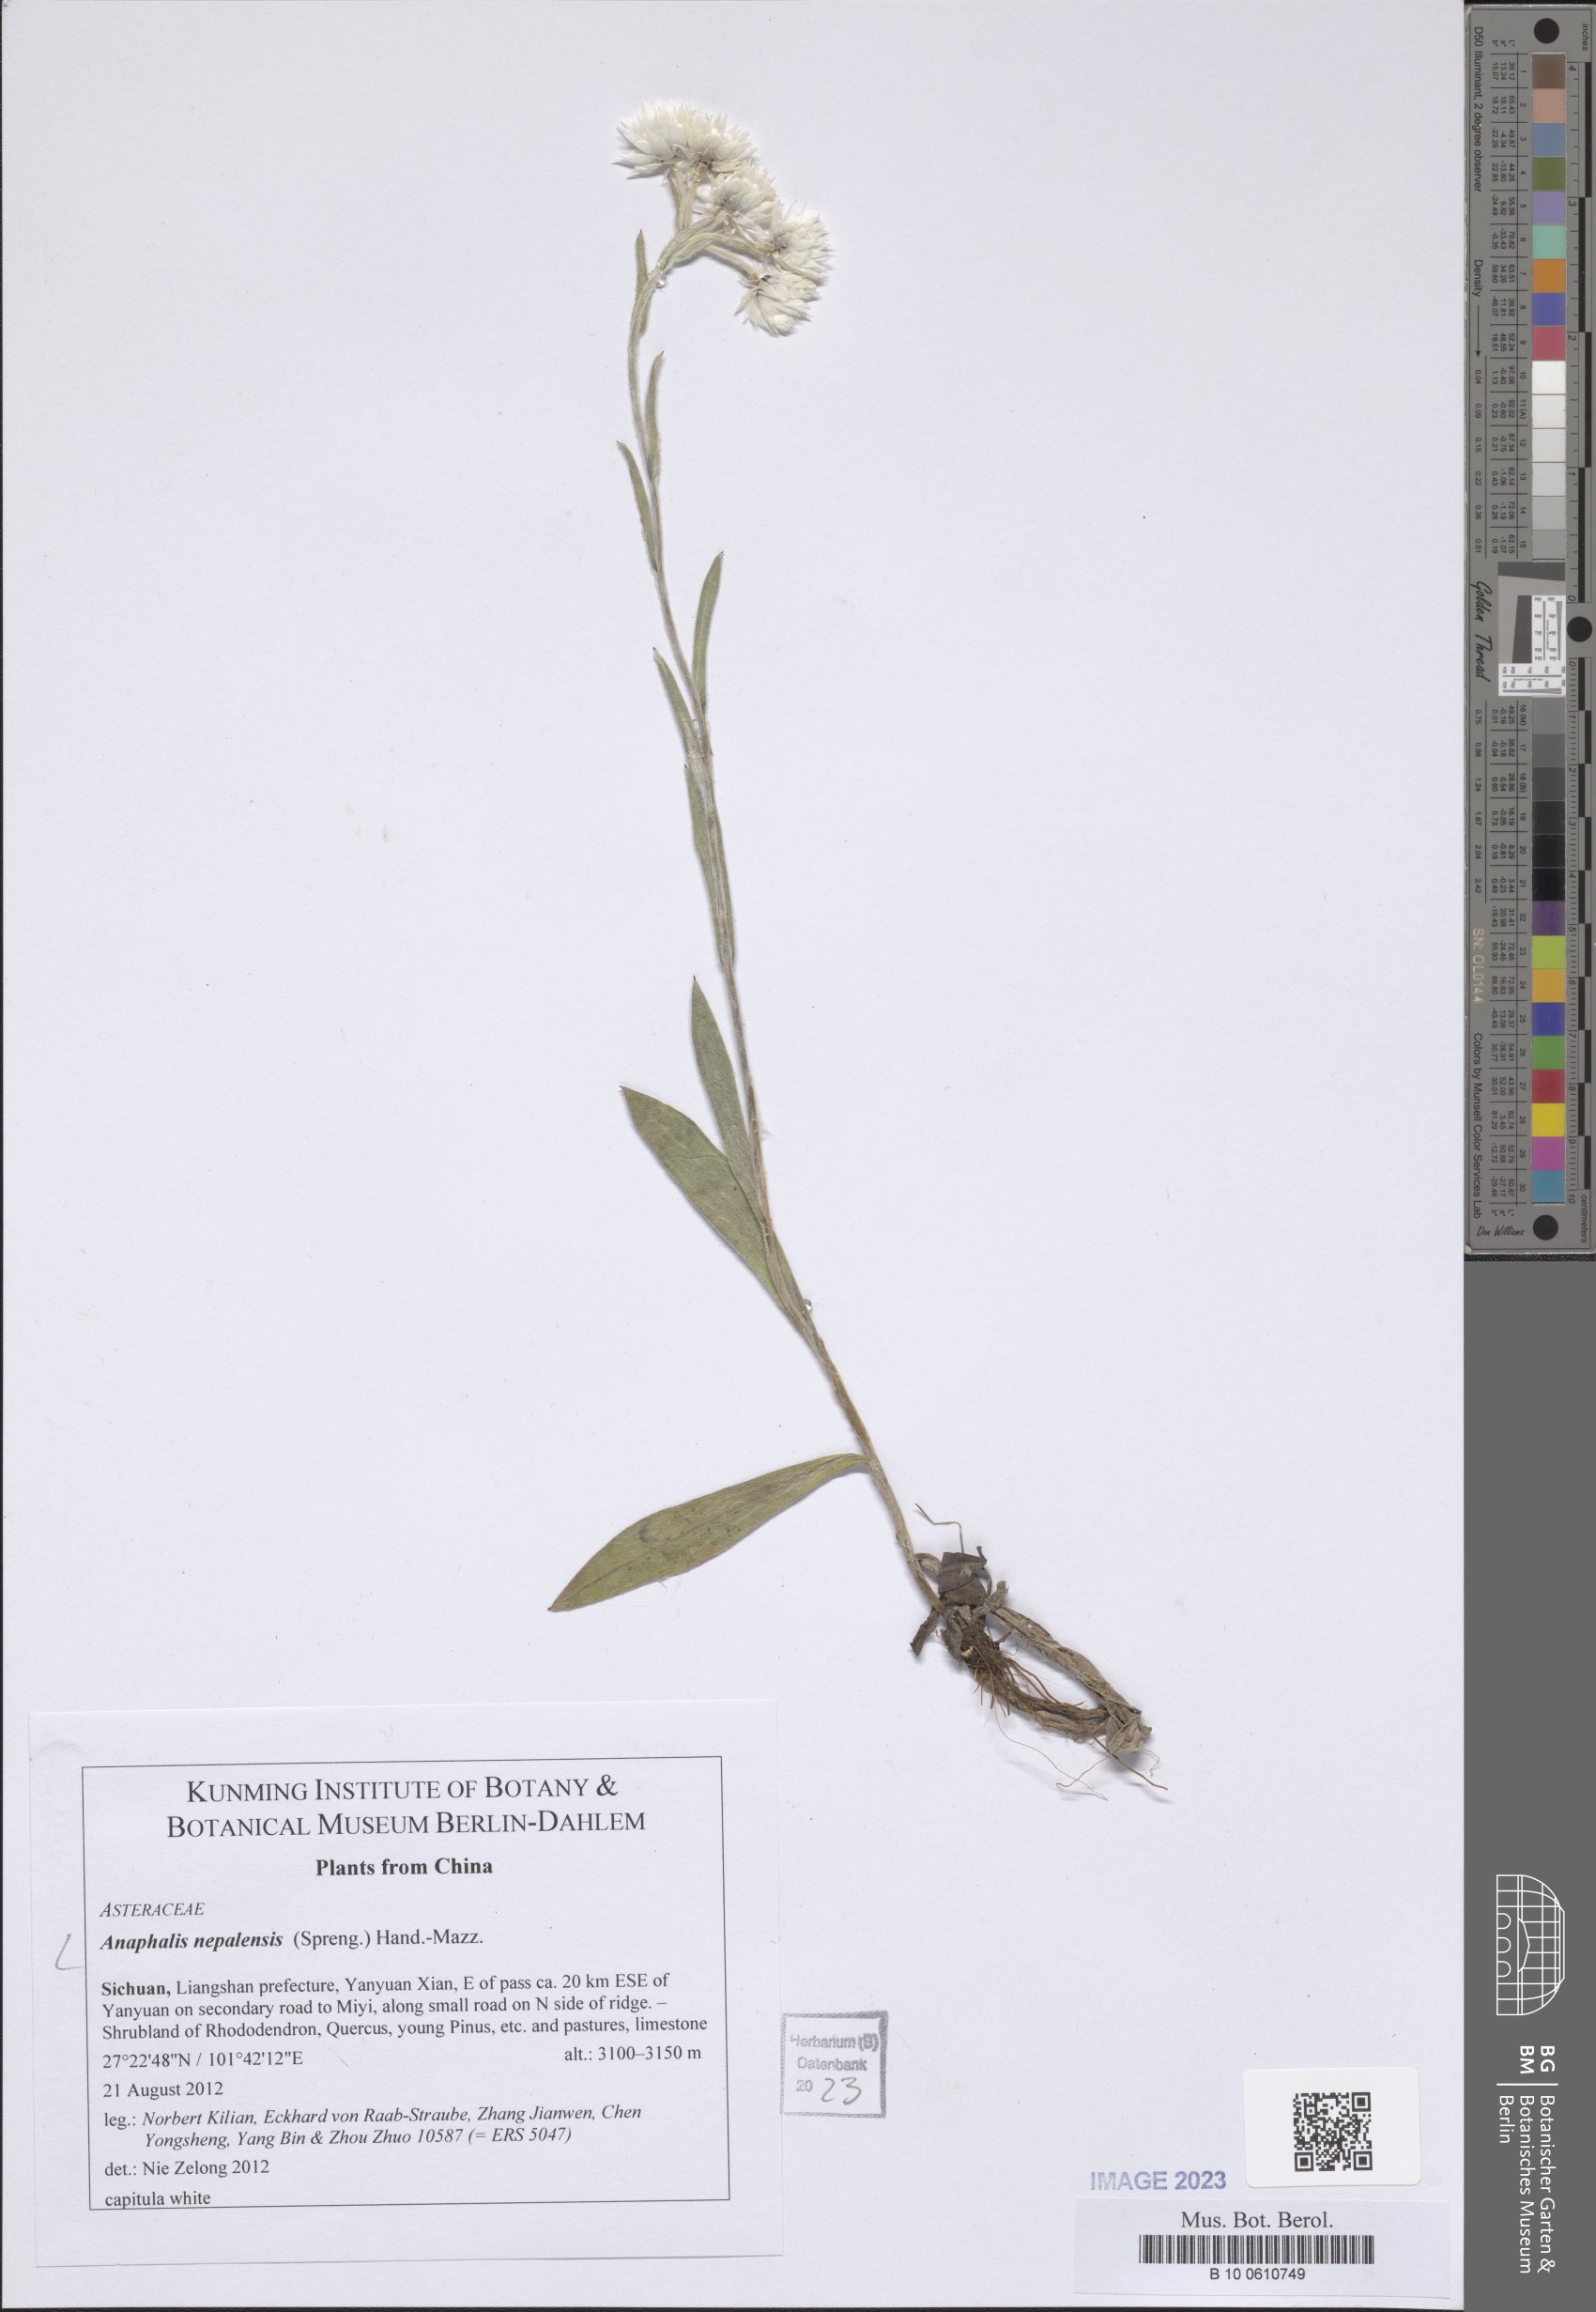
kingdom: Plantae
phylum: Tracheophyta
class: Magnoliopsida
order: Asterales
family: Asteraceae
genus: Anaphalis
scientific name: Anaphalis nepalensis
